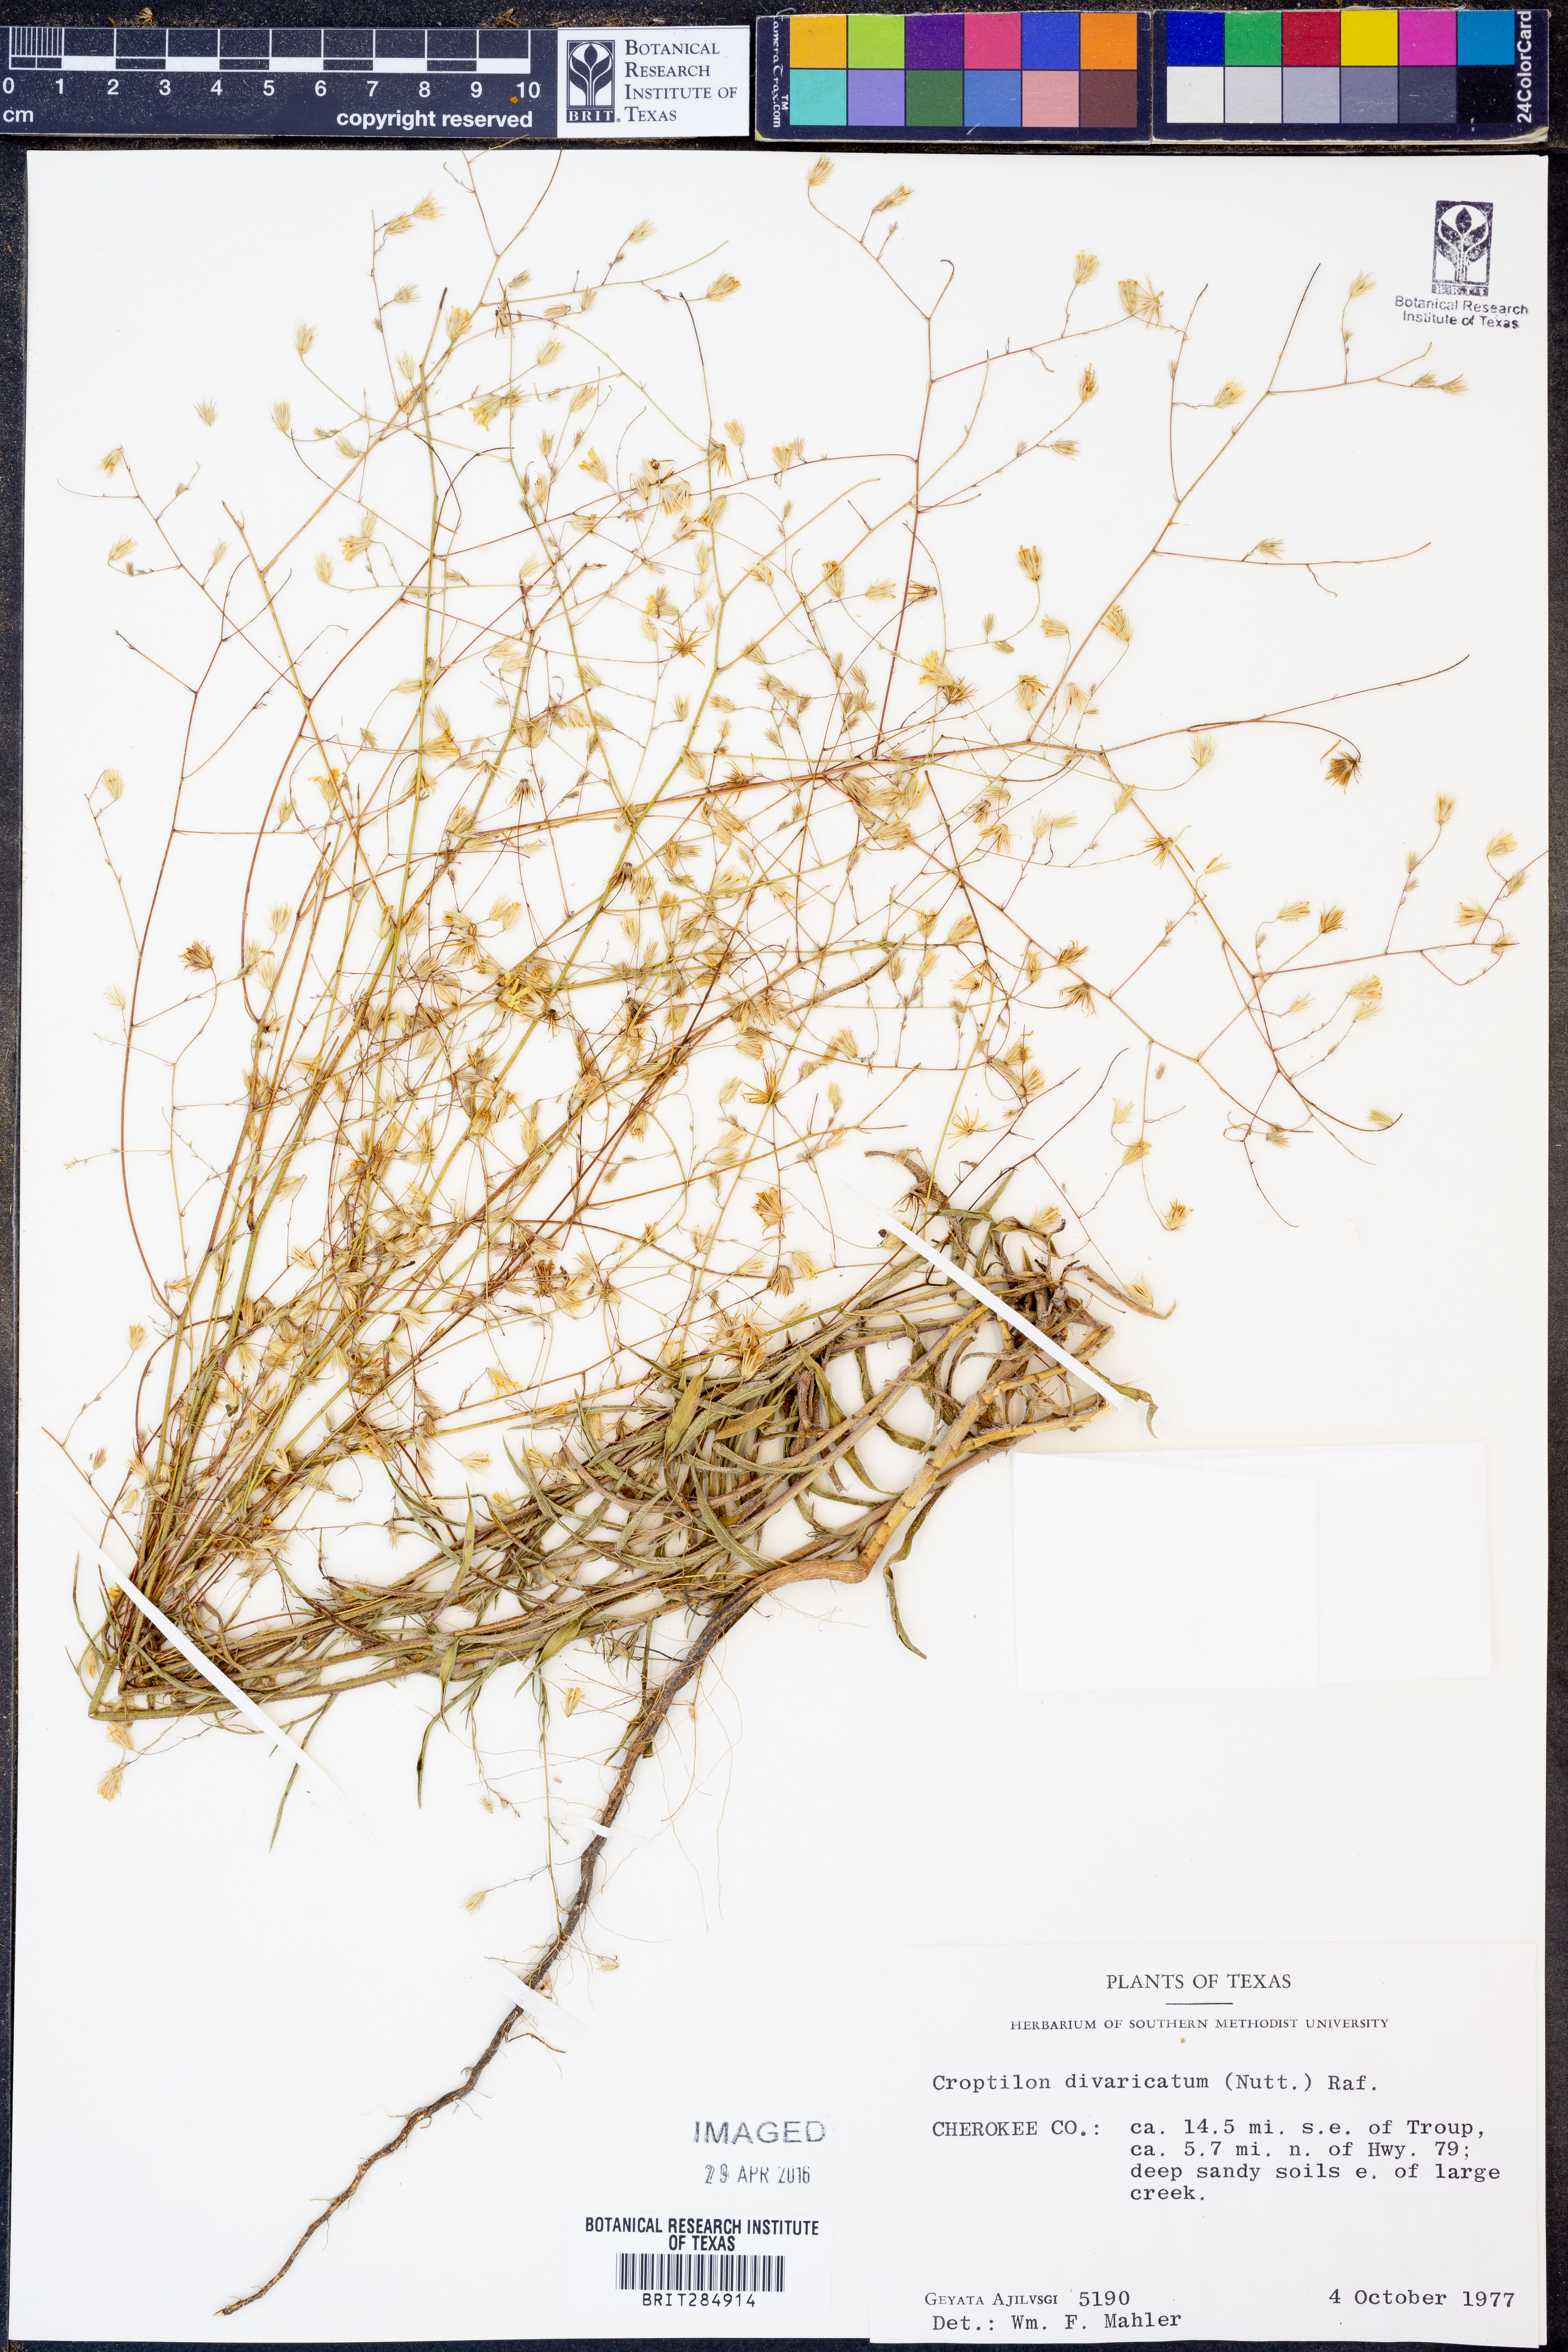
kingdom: Plantae
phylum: Tracheophyta
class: Magnoliopsida
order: Asterales
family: Asteraceae
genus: Croptilon
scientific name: Croptilon divaricatum
